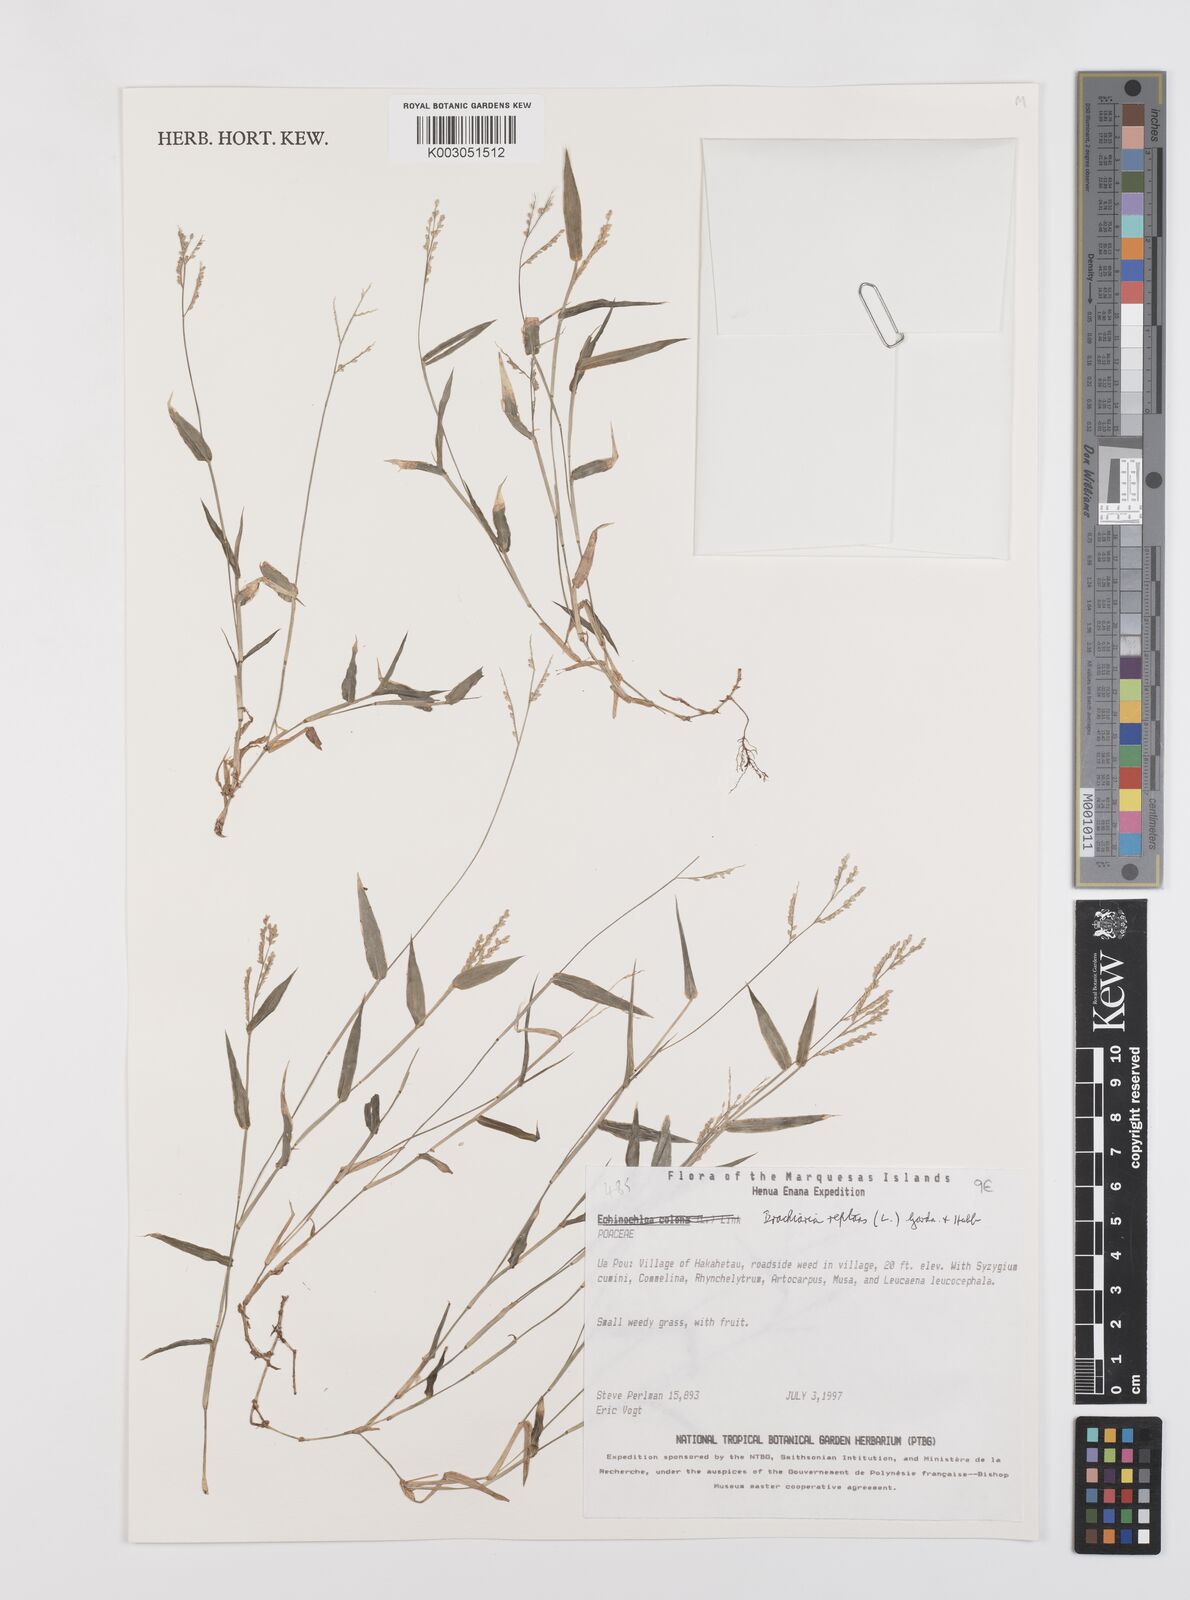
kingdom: Plantae
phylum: Tracheophyta
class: Liliopsida
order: Poales
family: Poaceae
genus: Urochloa
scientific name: Urochloa reptans
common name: Sprawling signalgrass
